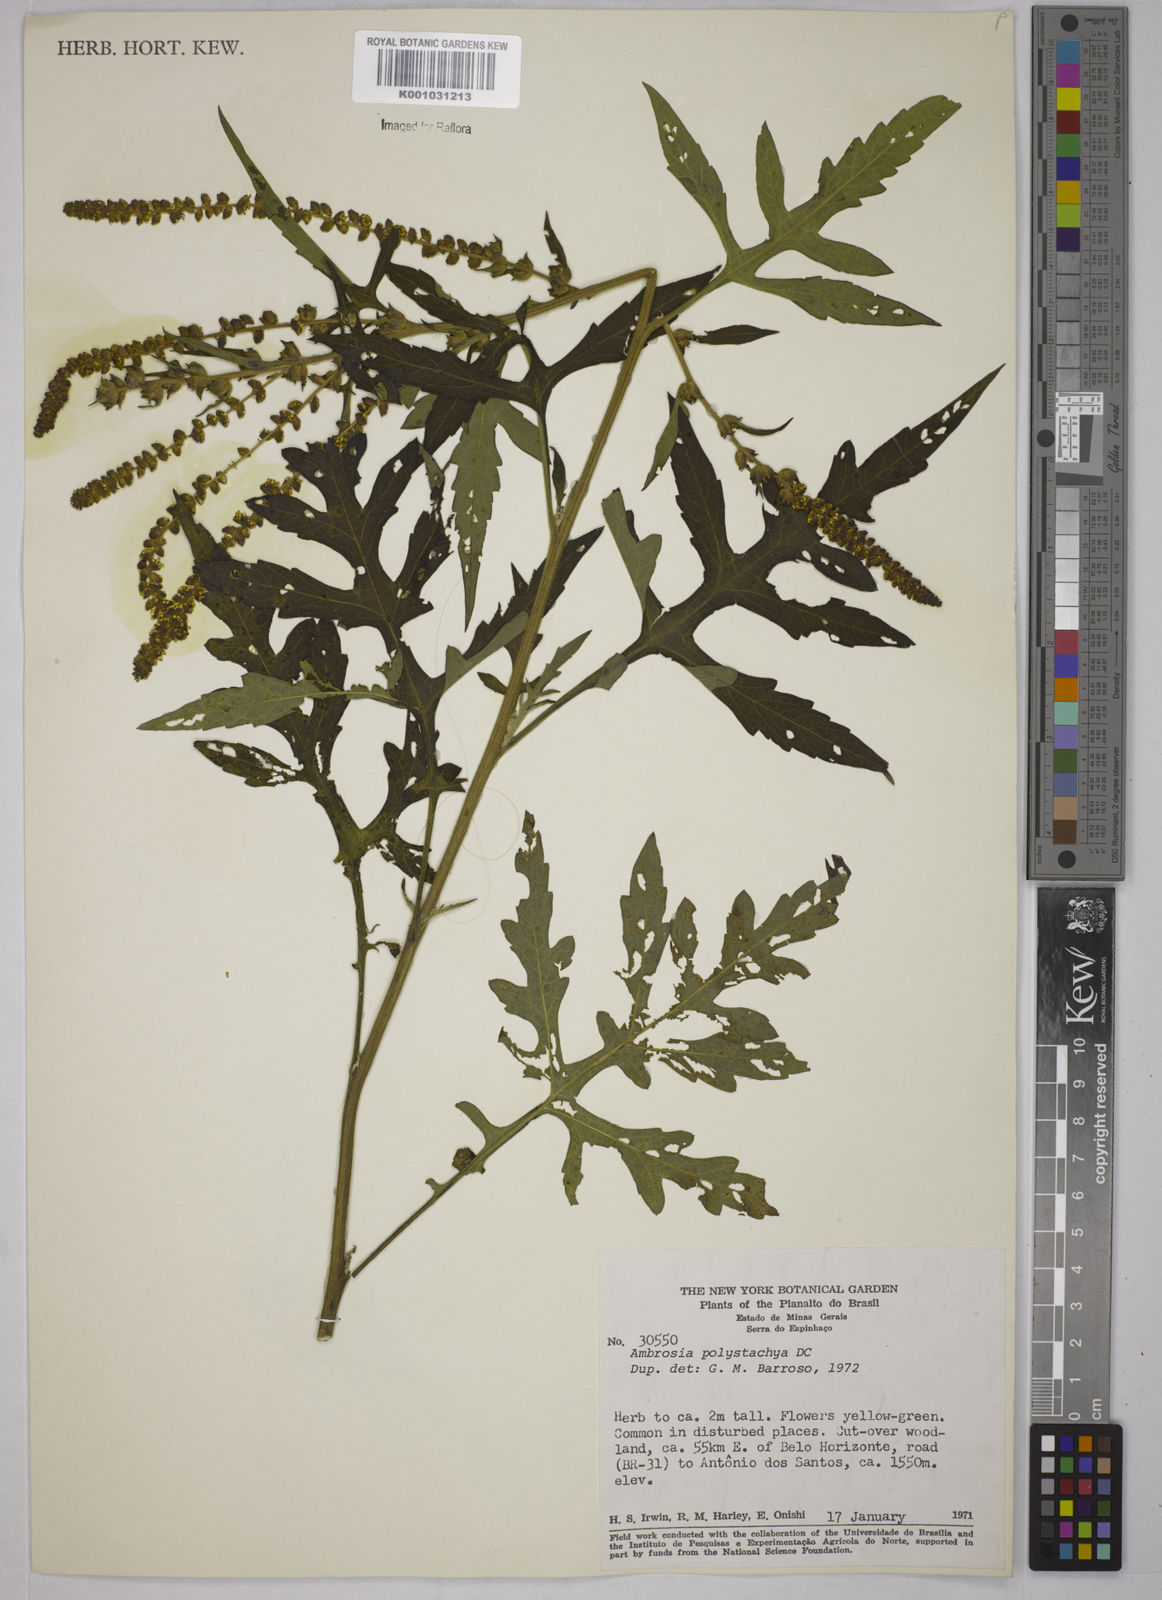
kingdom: Plantae
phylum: Tracheophyta
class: Magnoliopsida
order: Asterales
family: Asteraceae
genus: Ambrosia
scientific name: Ambrosia polystachya
